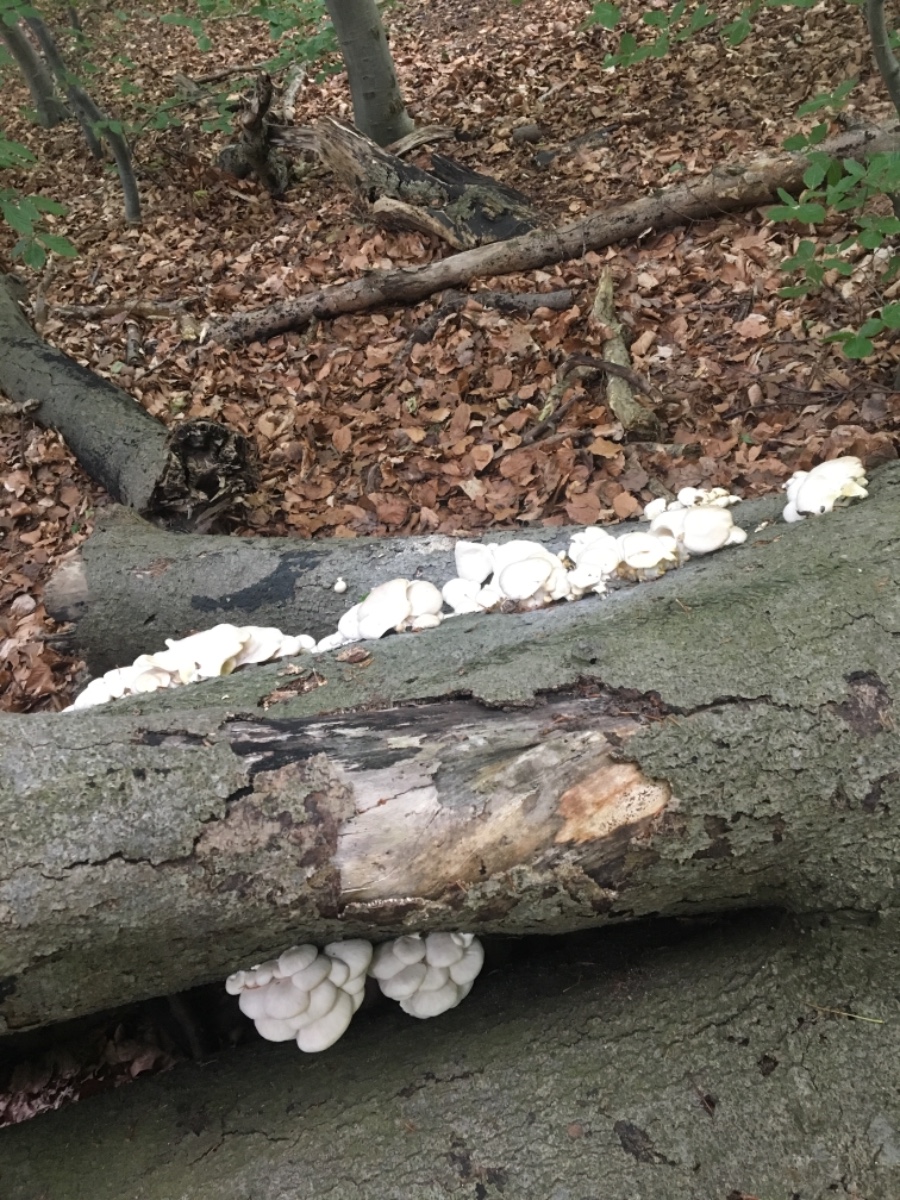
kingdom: Fungi
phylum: Basidiomycota
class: Agaricomycetes
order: Agaricales
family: Pleurotaceae
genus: Pleurotus
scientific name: Pleurotus pulmonarius
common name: sommer-østershat
